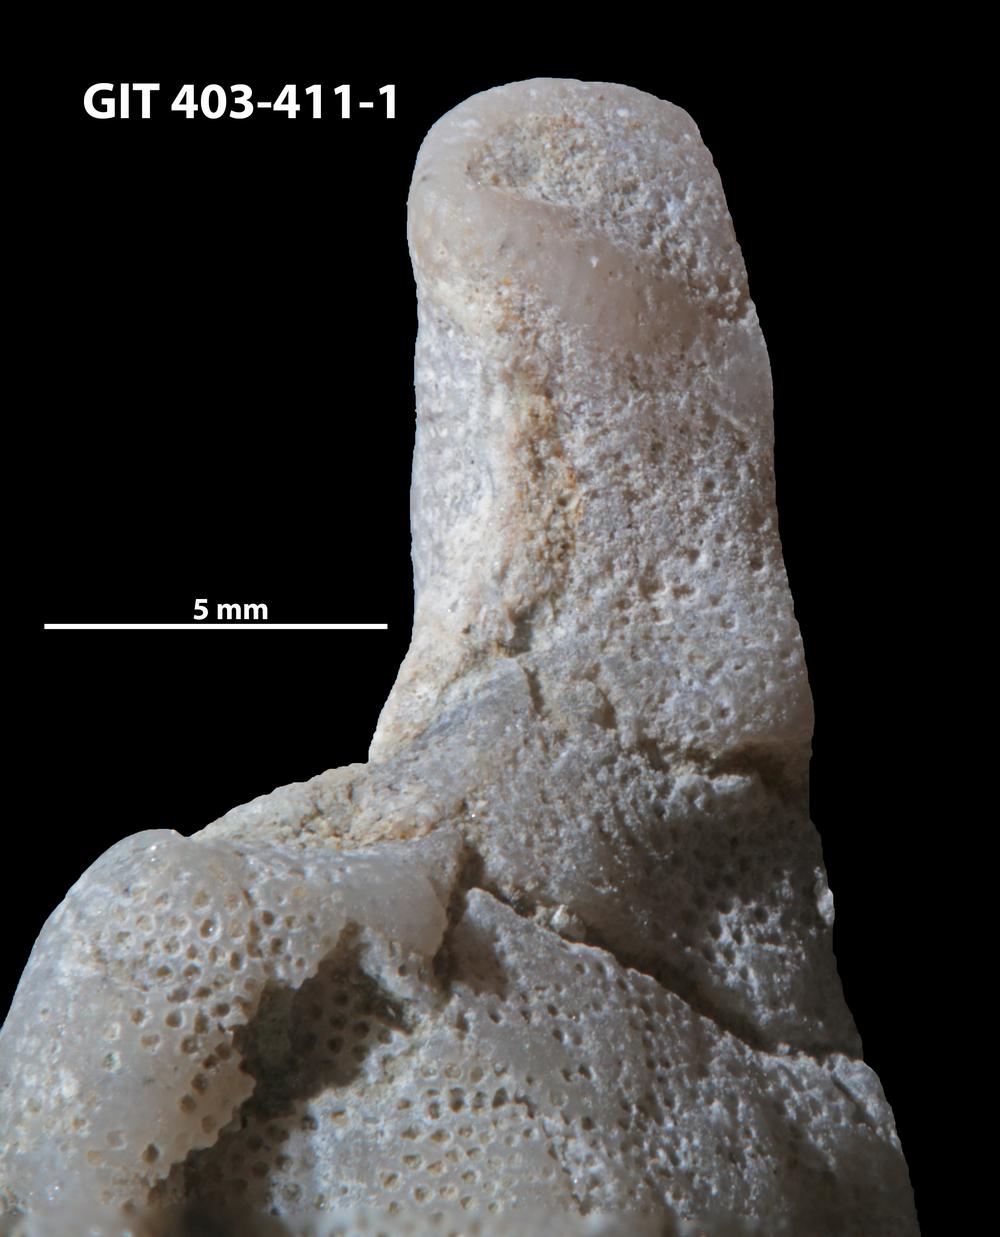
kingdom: Animalia
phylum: Cnidaria
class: Anthozoa
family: Tryplasmatidae
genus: Tryplasma
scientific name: Tryplasma
